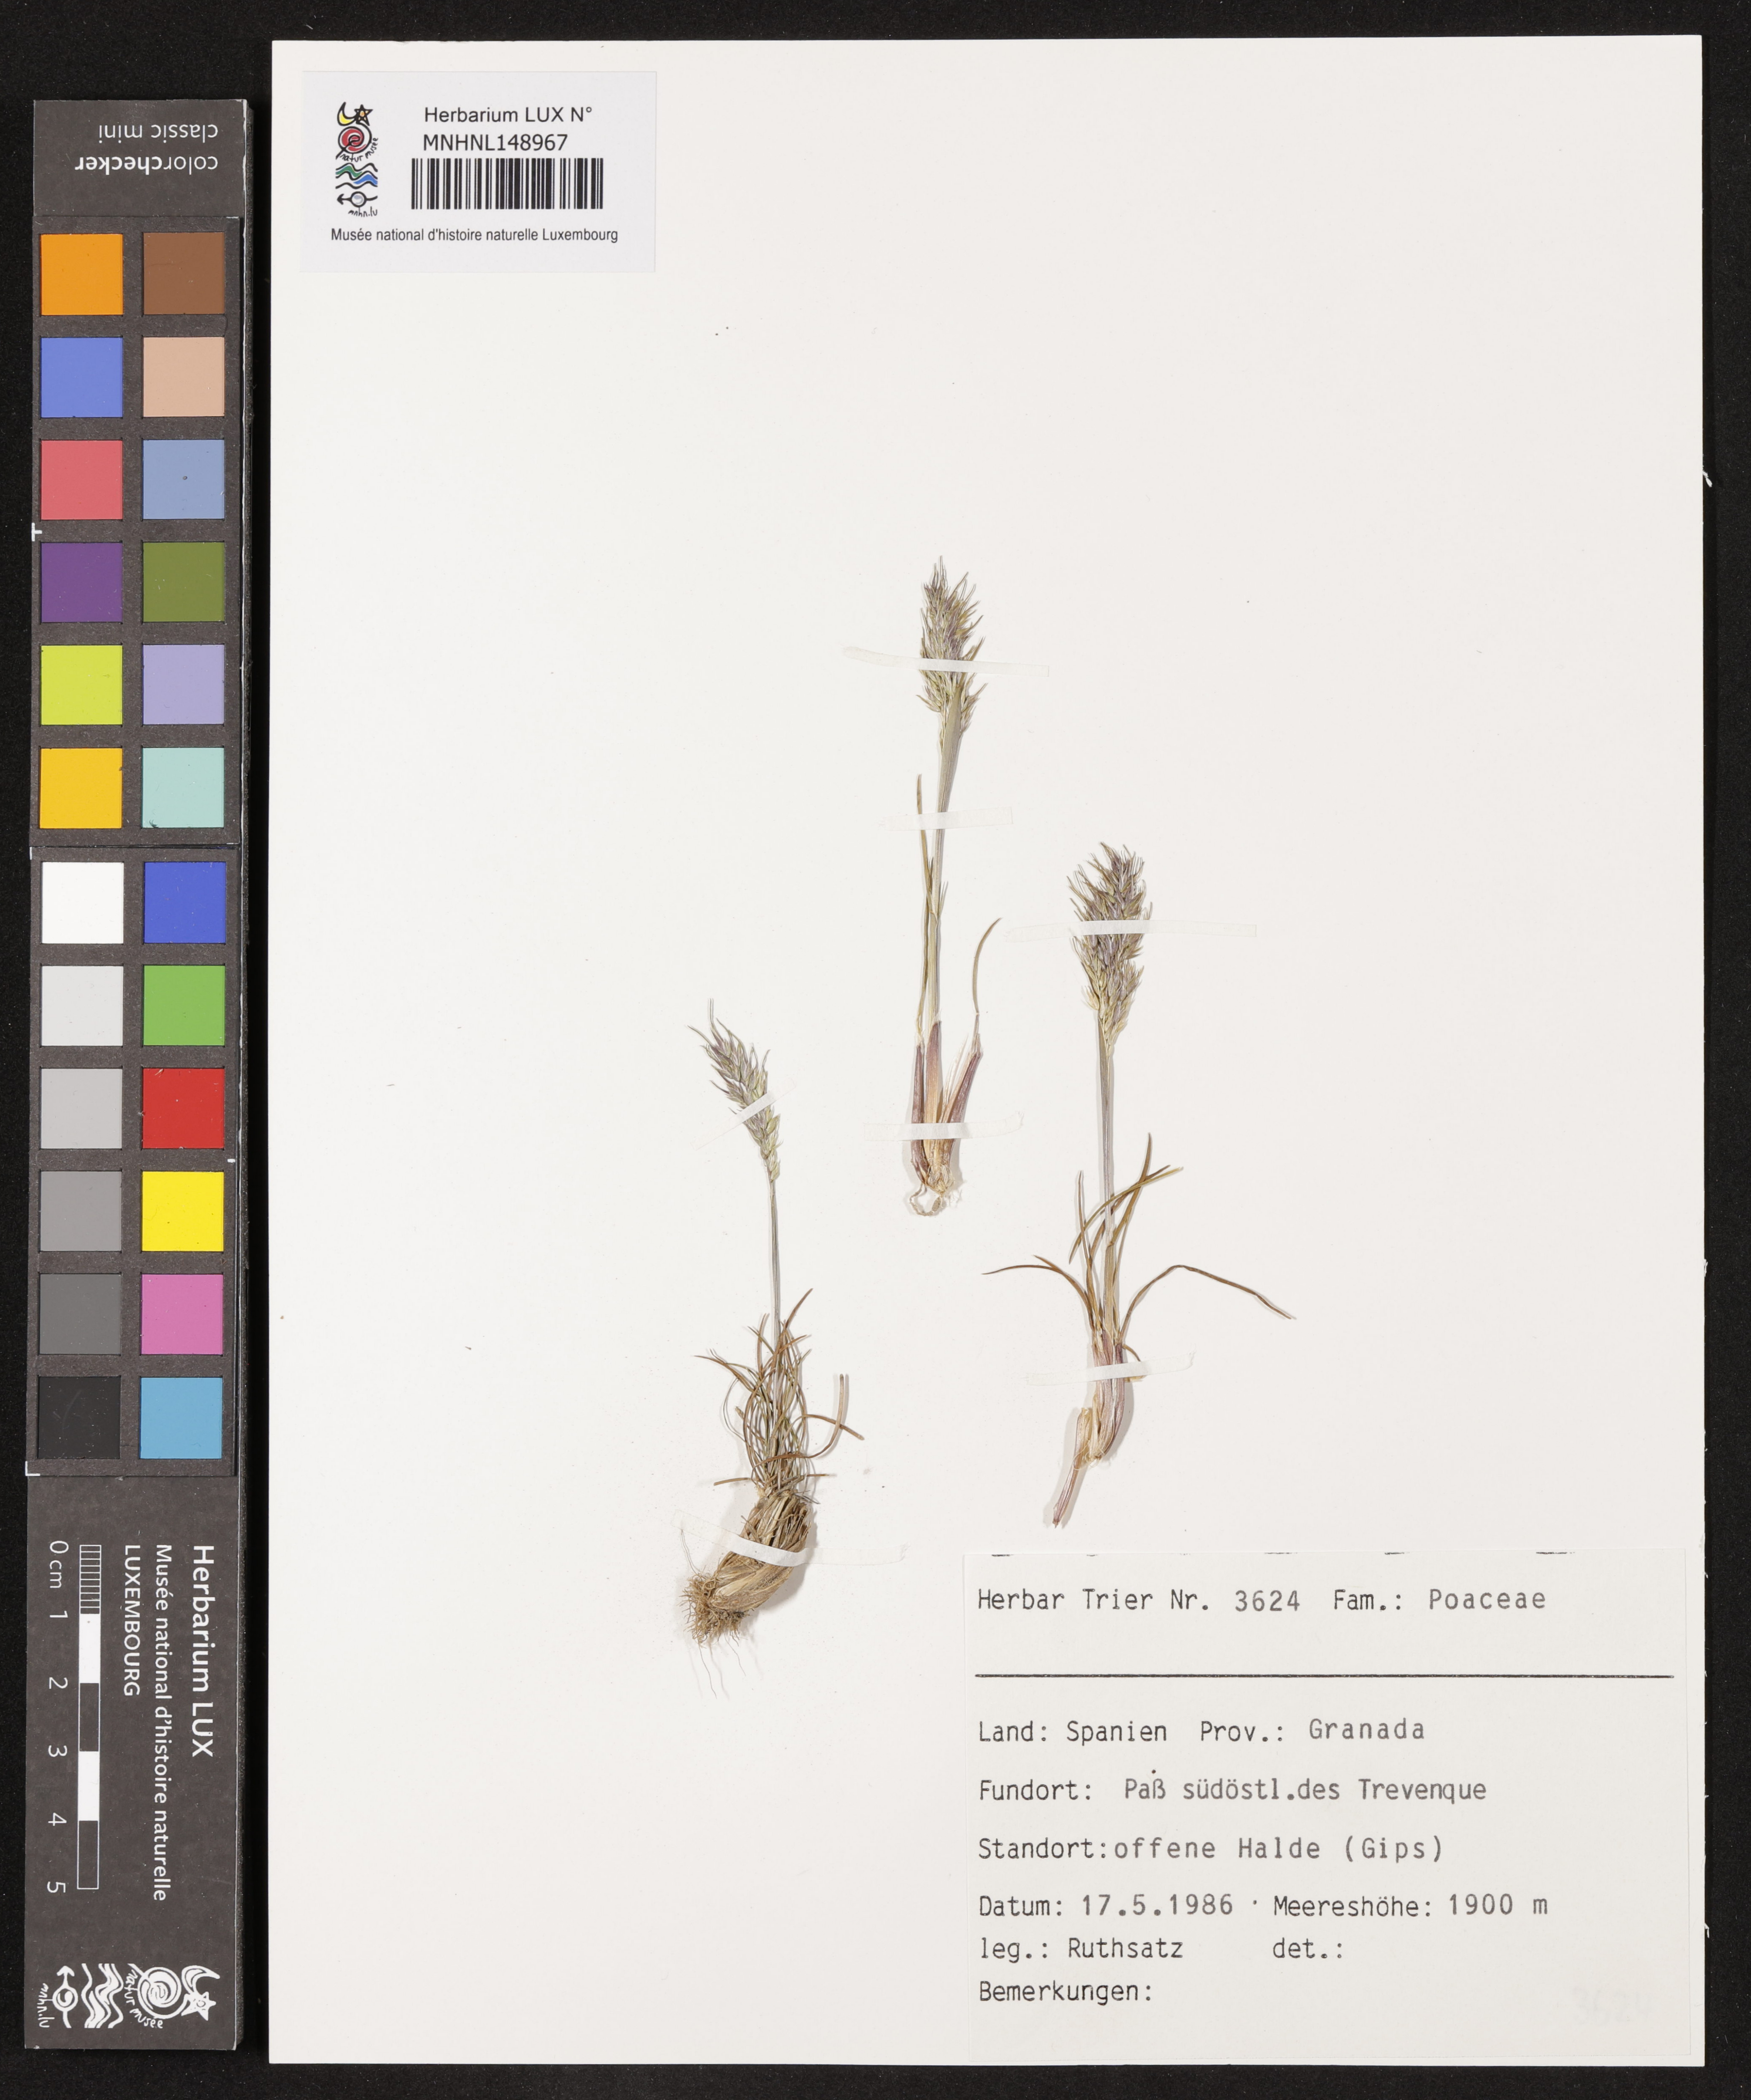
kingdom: Plantae
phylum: Tracheophyta
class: Liliopsida
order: Poales
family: Poaceae
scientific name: Poaceae
